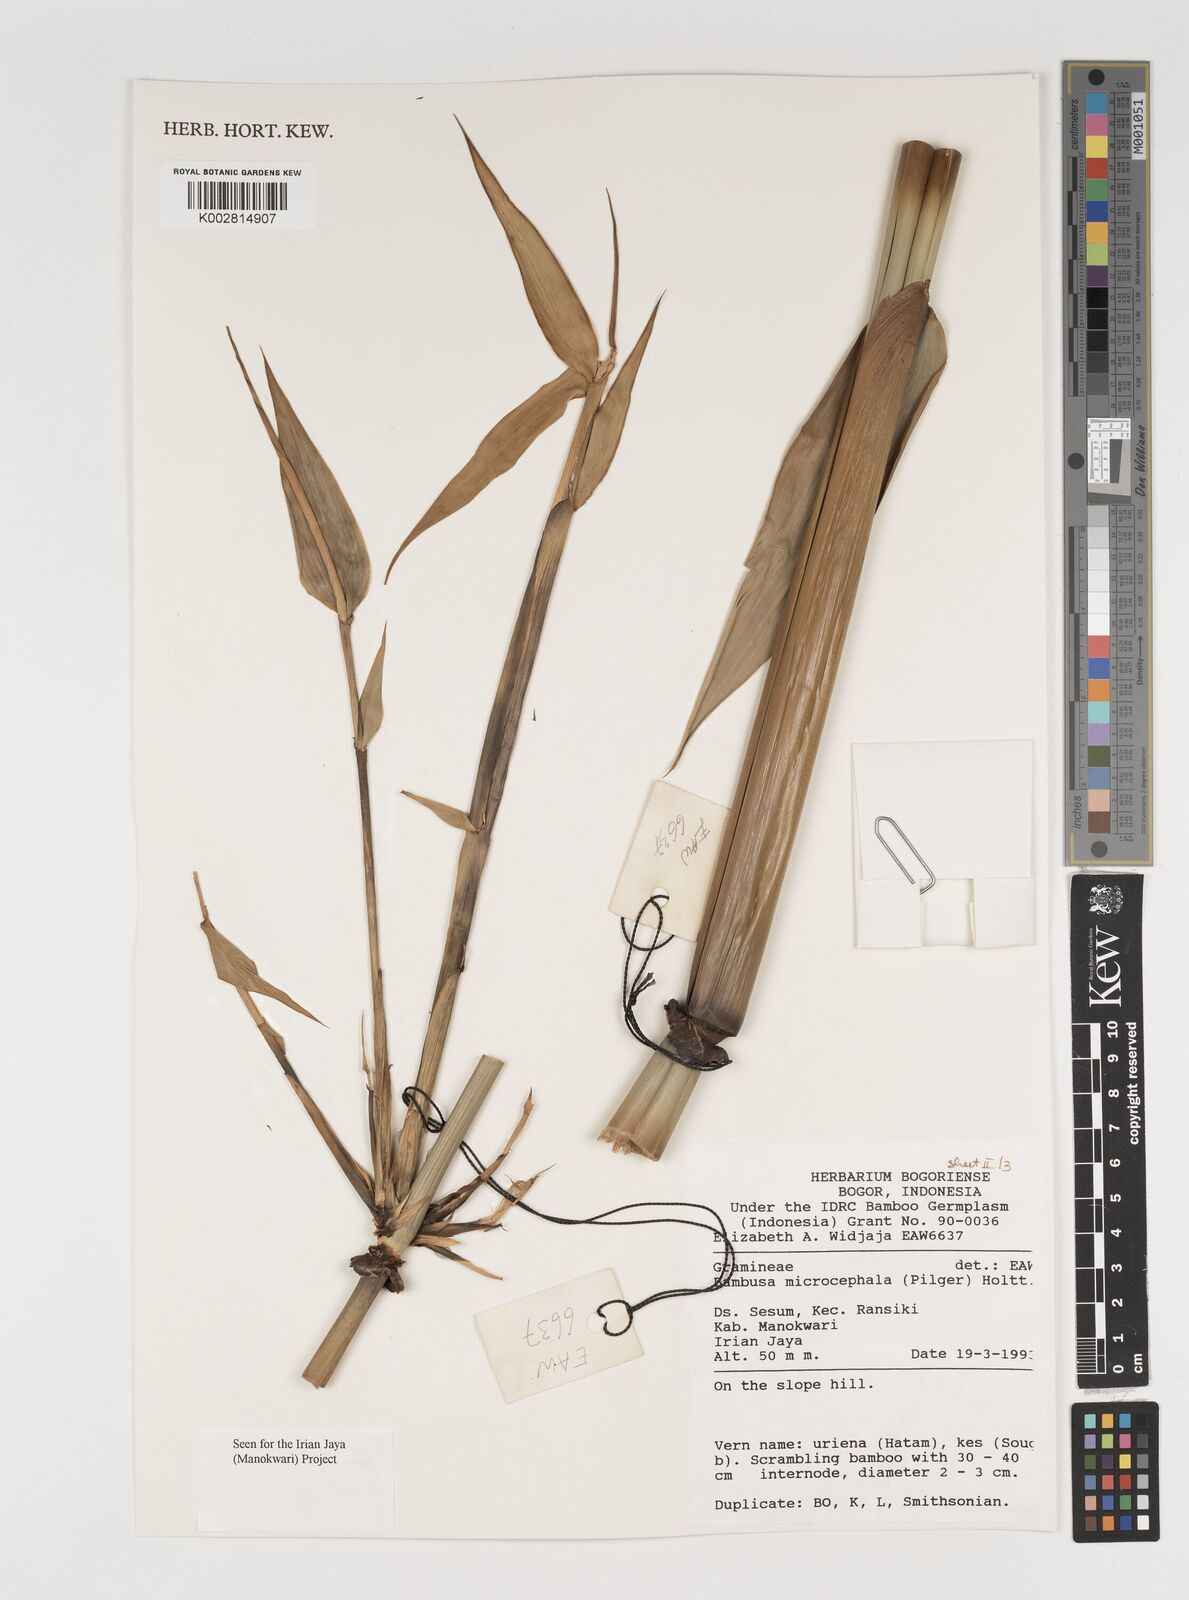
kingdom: Plantae
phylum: Tracheophyta
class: Liliopsida
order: Poales
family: Poaceae
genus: Fimbribambusa
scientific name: Fimbribambusa microcephala
